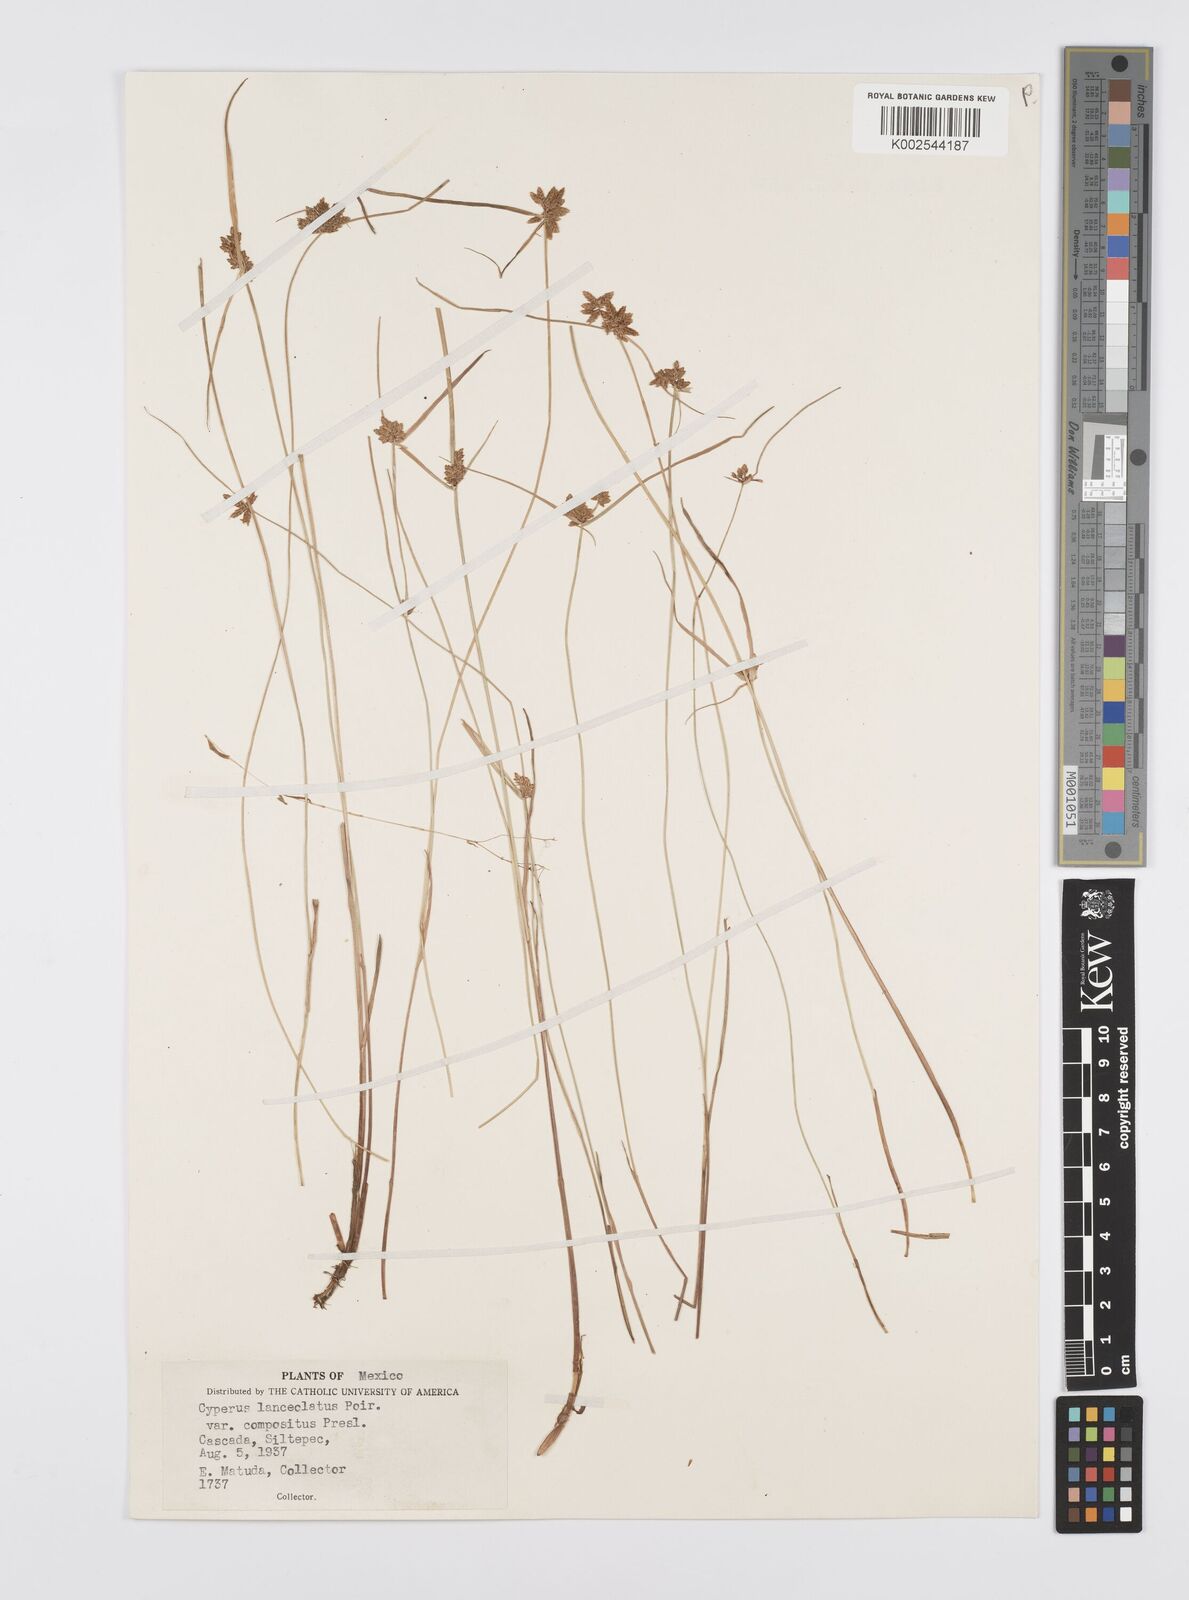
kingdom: Plantae
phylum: Tracheophyta
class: Liliopsida
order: Poales
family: Cyperaceae
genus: Cyperus
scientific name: Cyperus
